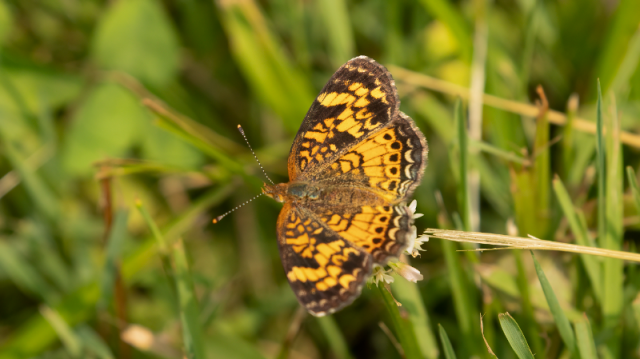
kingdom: Animalia
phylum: Arthropoda
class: Insecta
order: Lepidoptera
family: Nymphalidae
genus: Phyciodes
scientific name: Phyciodes tharos
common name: Pearl Crescent
